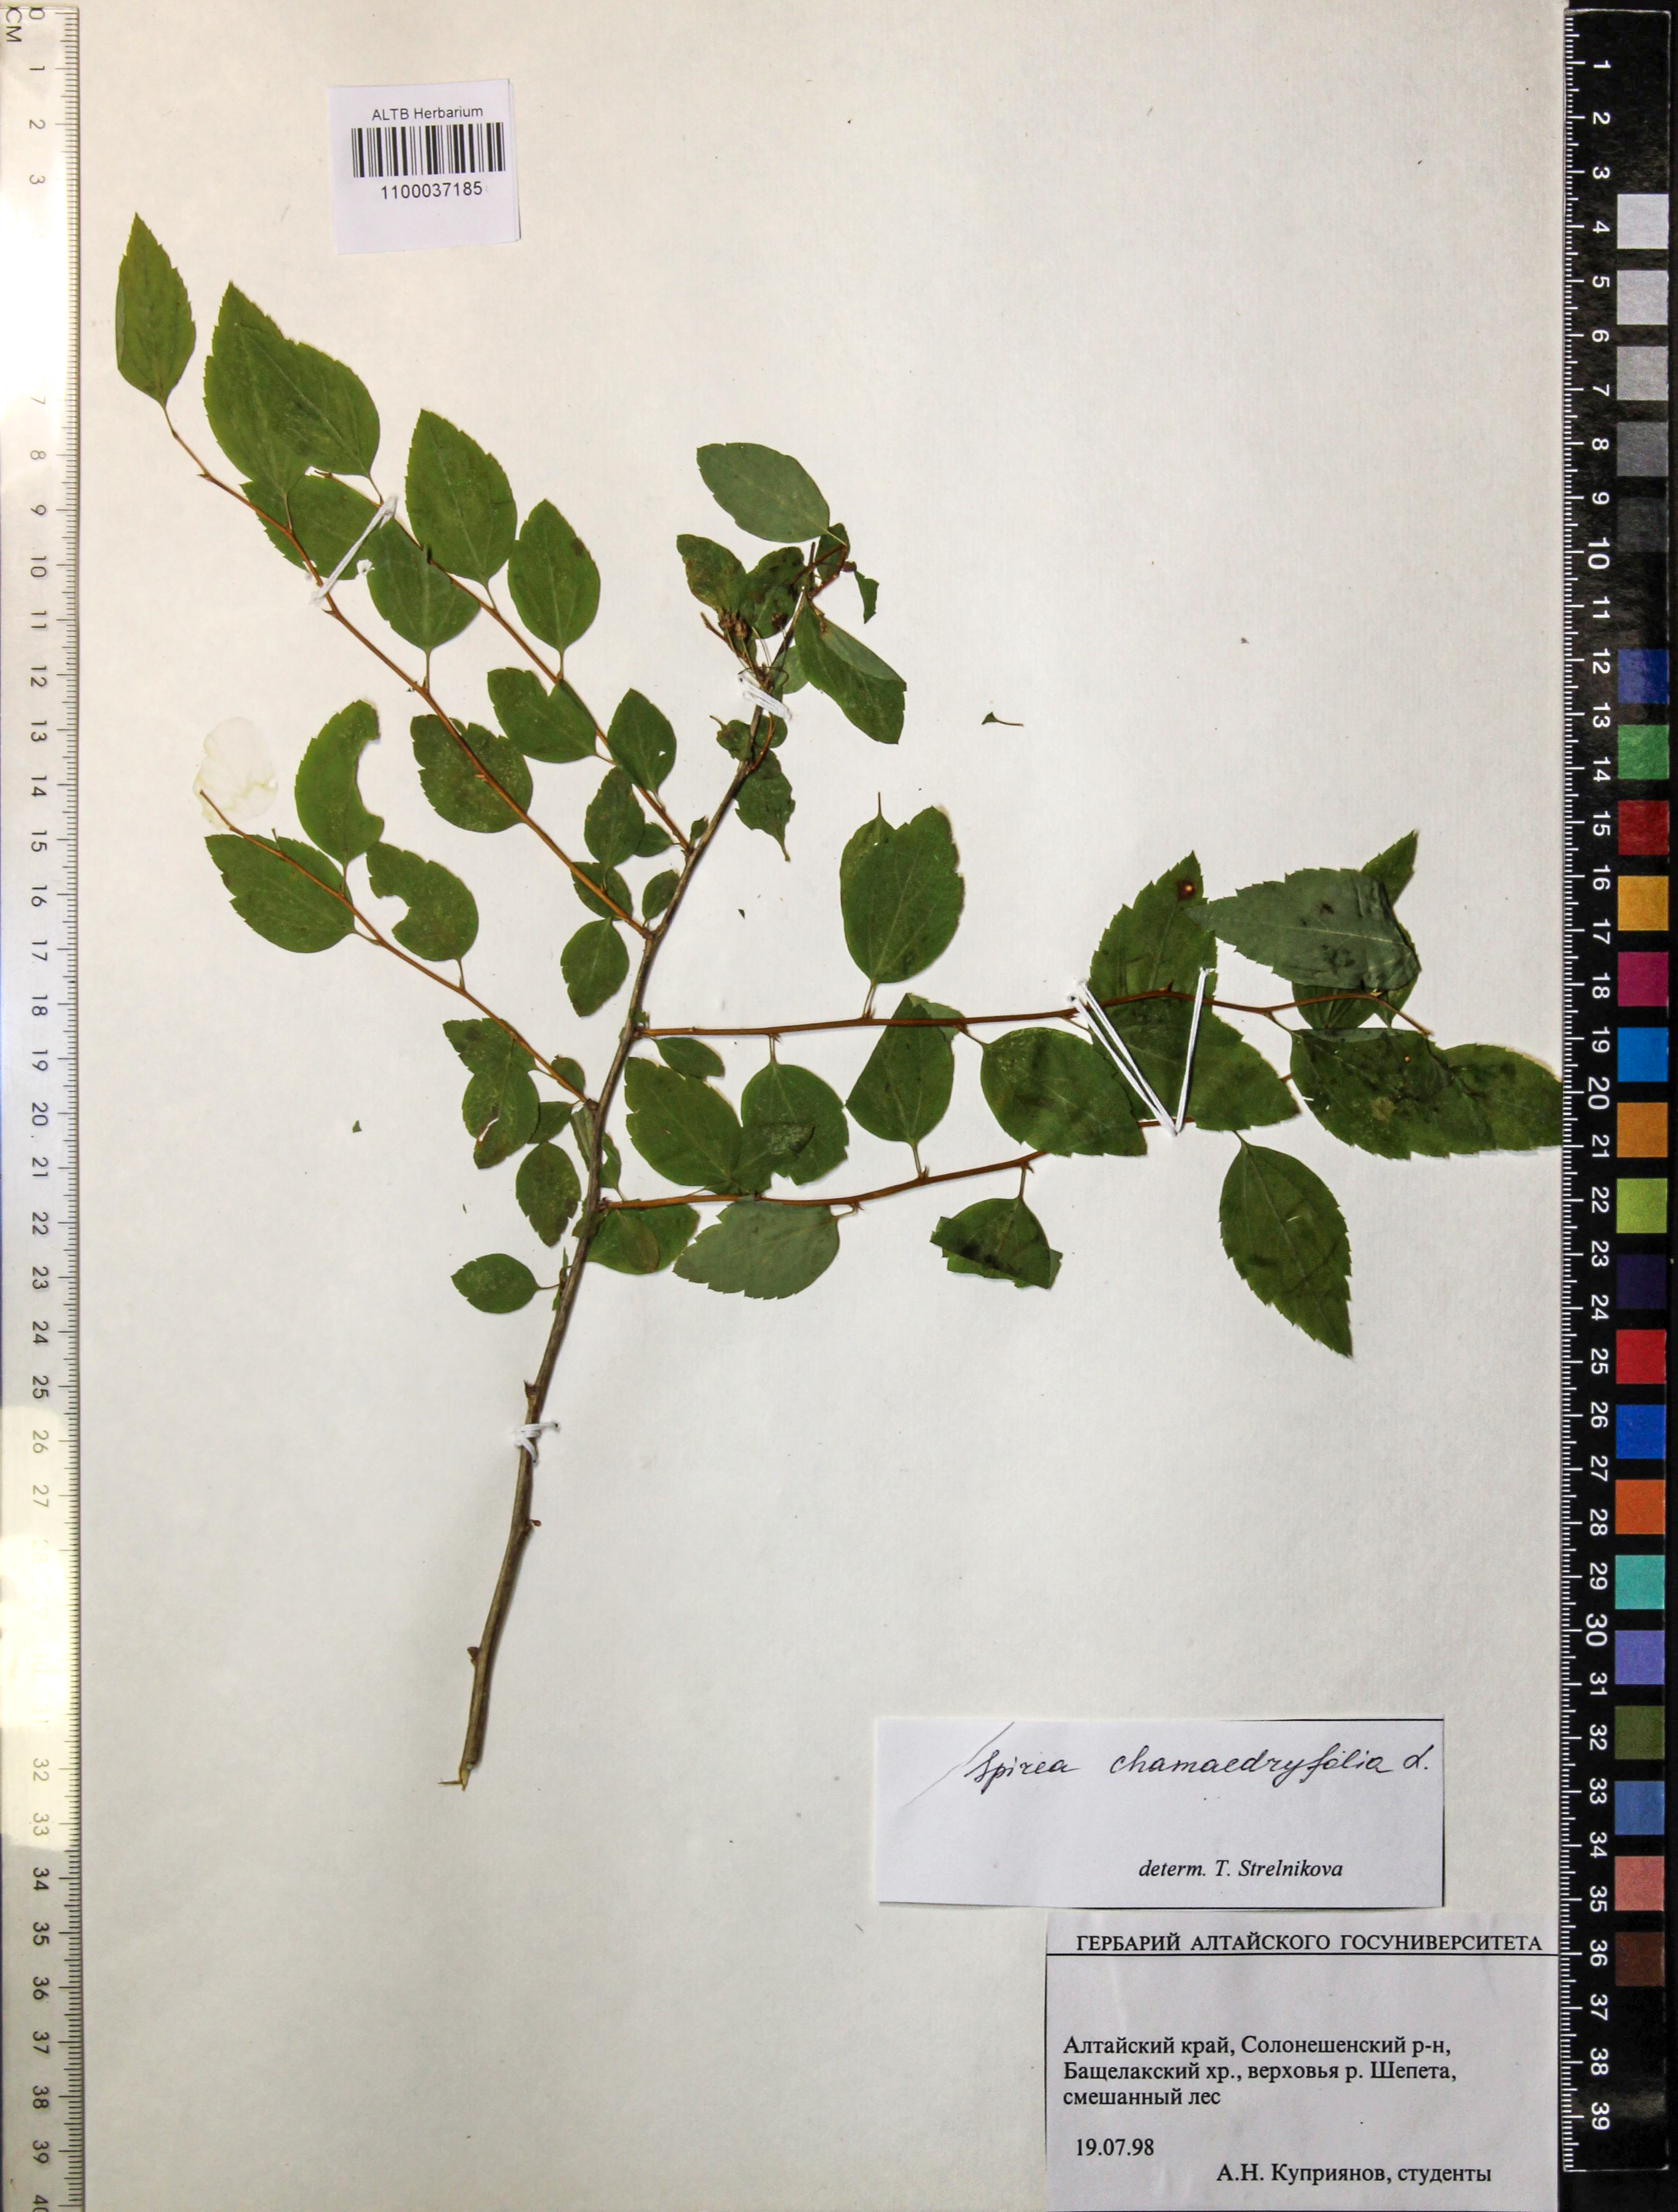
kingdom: Plantae
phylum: Tracheophyta
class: Magnoliopsida
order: Rosales
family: Rosaceae
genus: Spiraea
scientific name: Spiraea chamaedryfolia
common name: Elm-leaved spiraea
